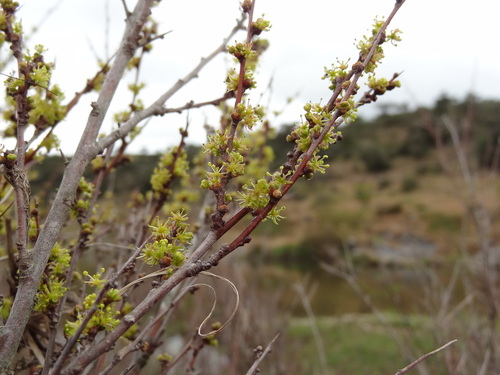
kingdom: Plantae
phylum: Tracheophyta
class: Magnoliopsida
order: Malpighiales
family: Phyllanthaceae
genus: Flueggea
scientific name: Flueggea tinctoria
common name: Tamujo
